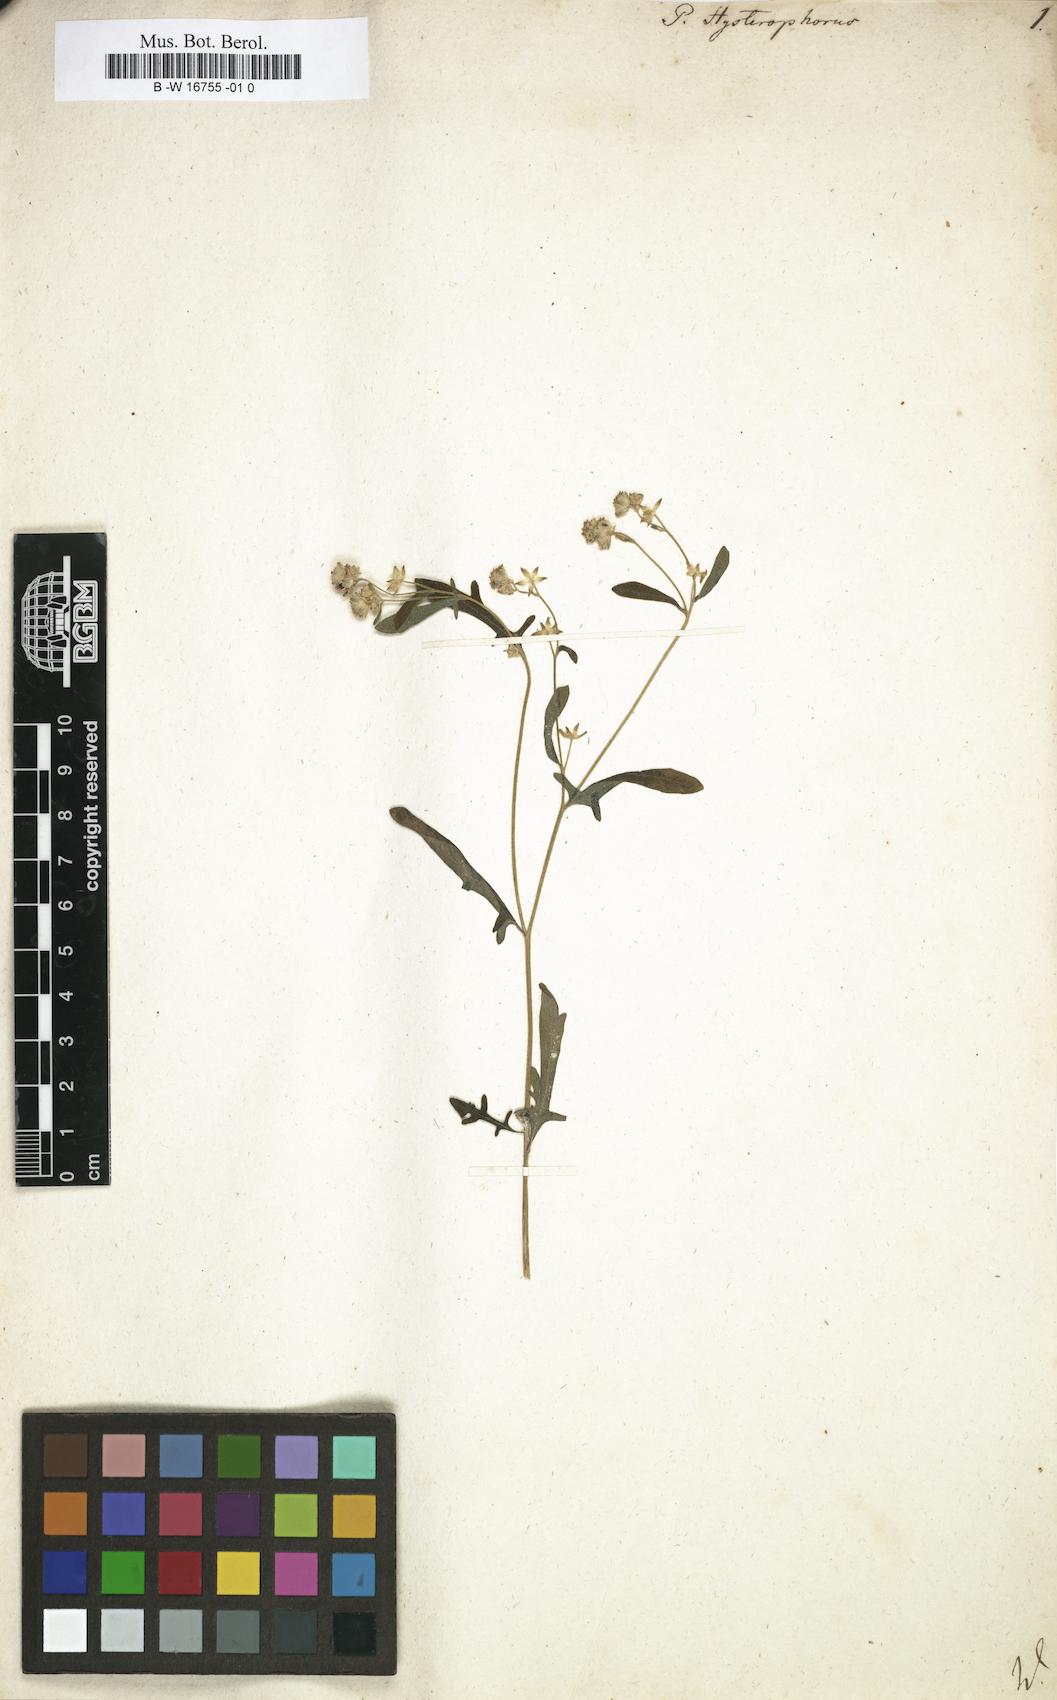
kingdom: Plantae
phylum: Tracheophyta
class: Magnoliopsida
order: Asterales
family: Asteraceae
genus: Parthenium
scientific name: Parthenium hysterophorus
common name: Santa maria feverfew
